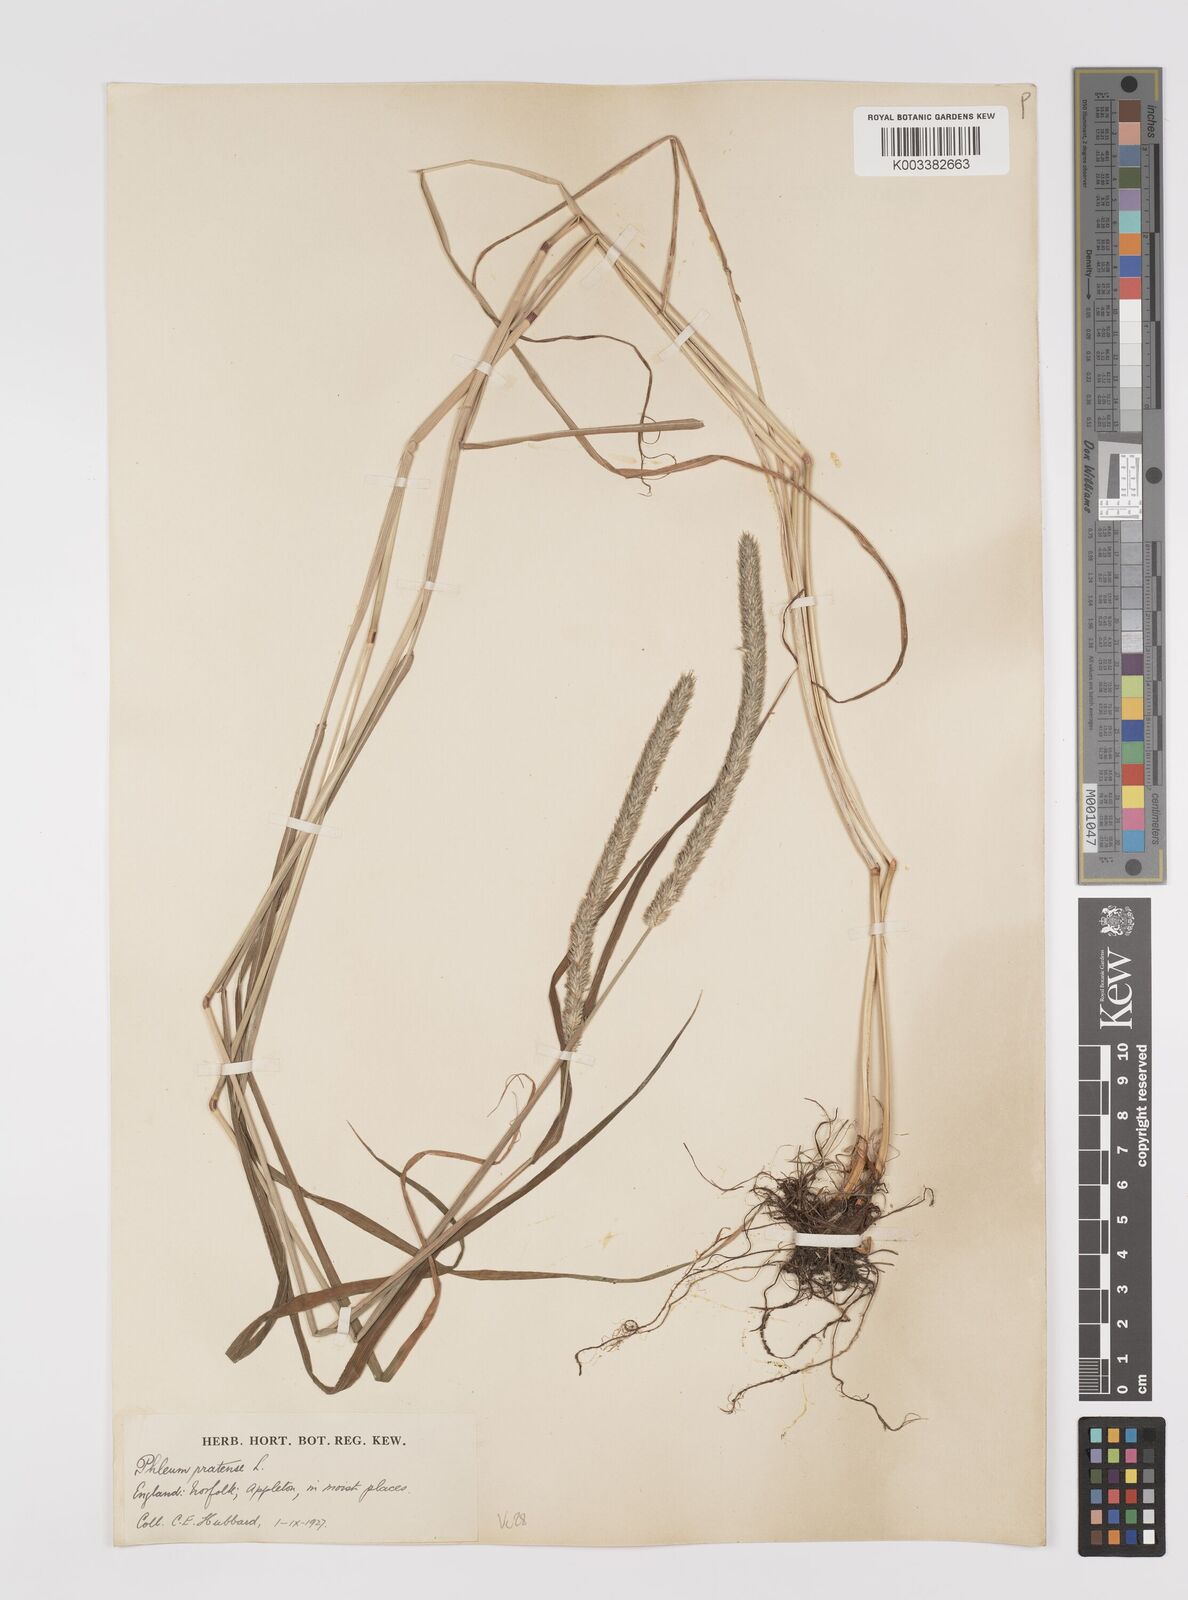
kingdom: Plantae
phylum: Tracheophyta
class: Liliopsida
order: Poales
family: Poaceae
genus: Phleum
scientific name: Phleum pratense
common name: Timothy grass
